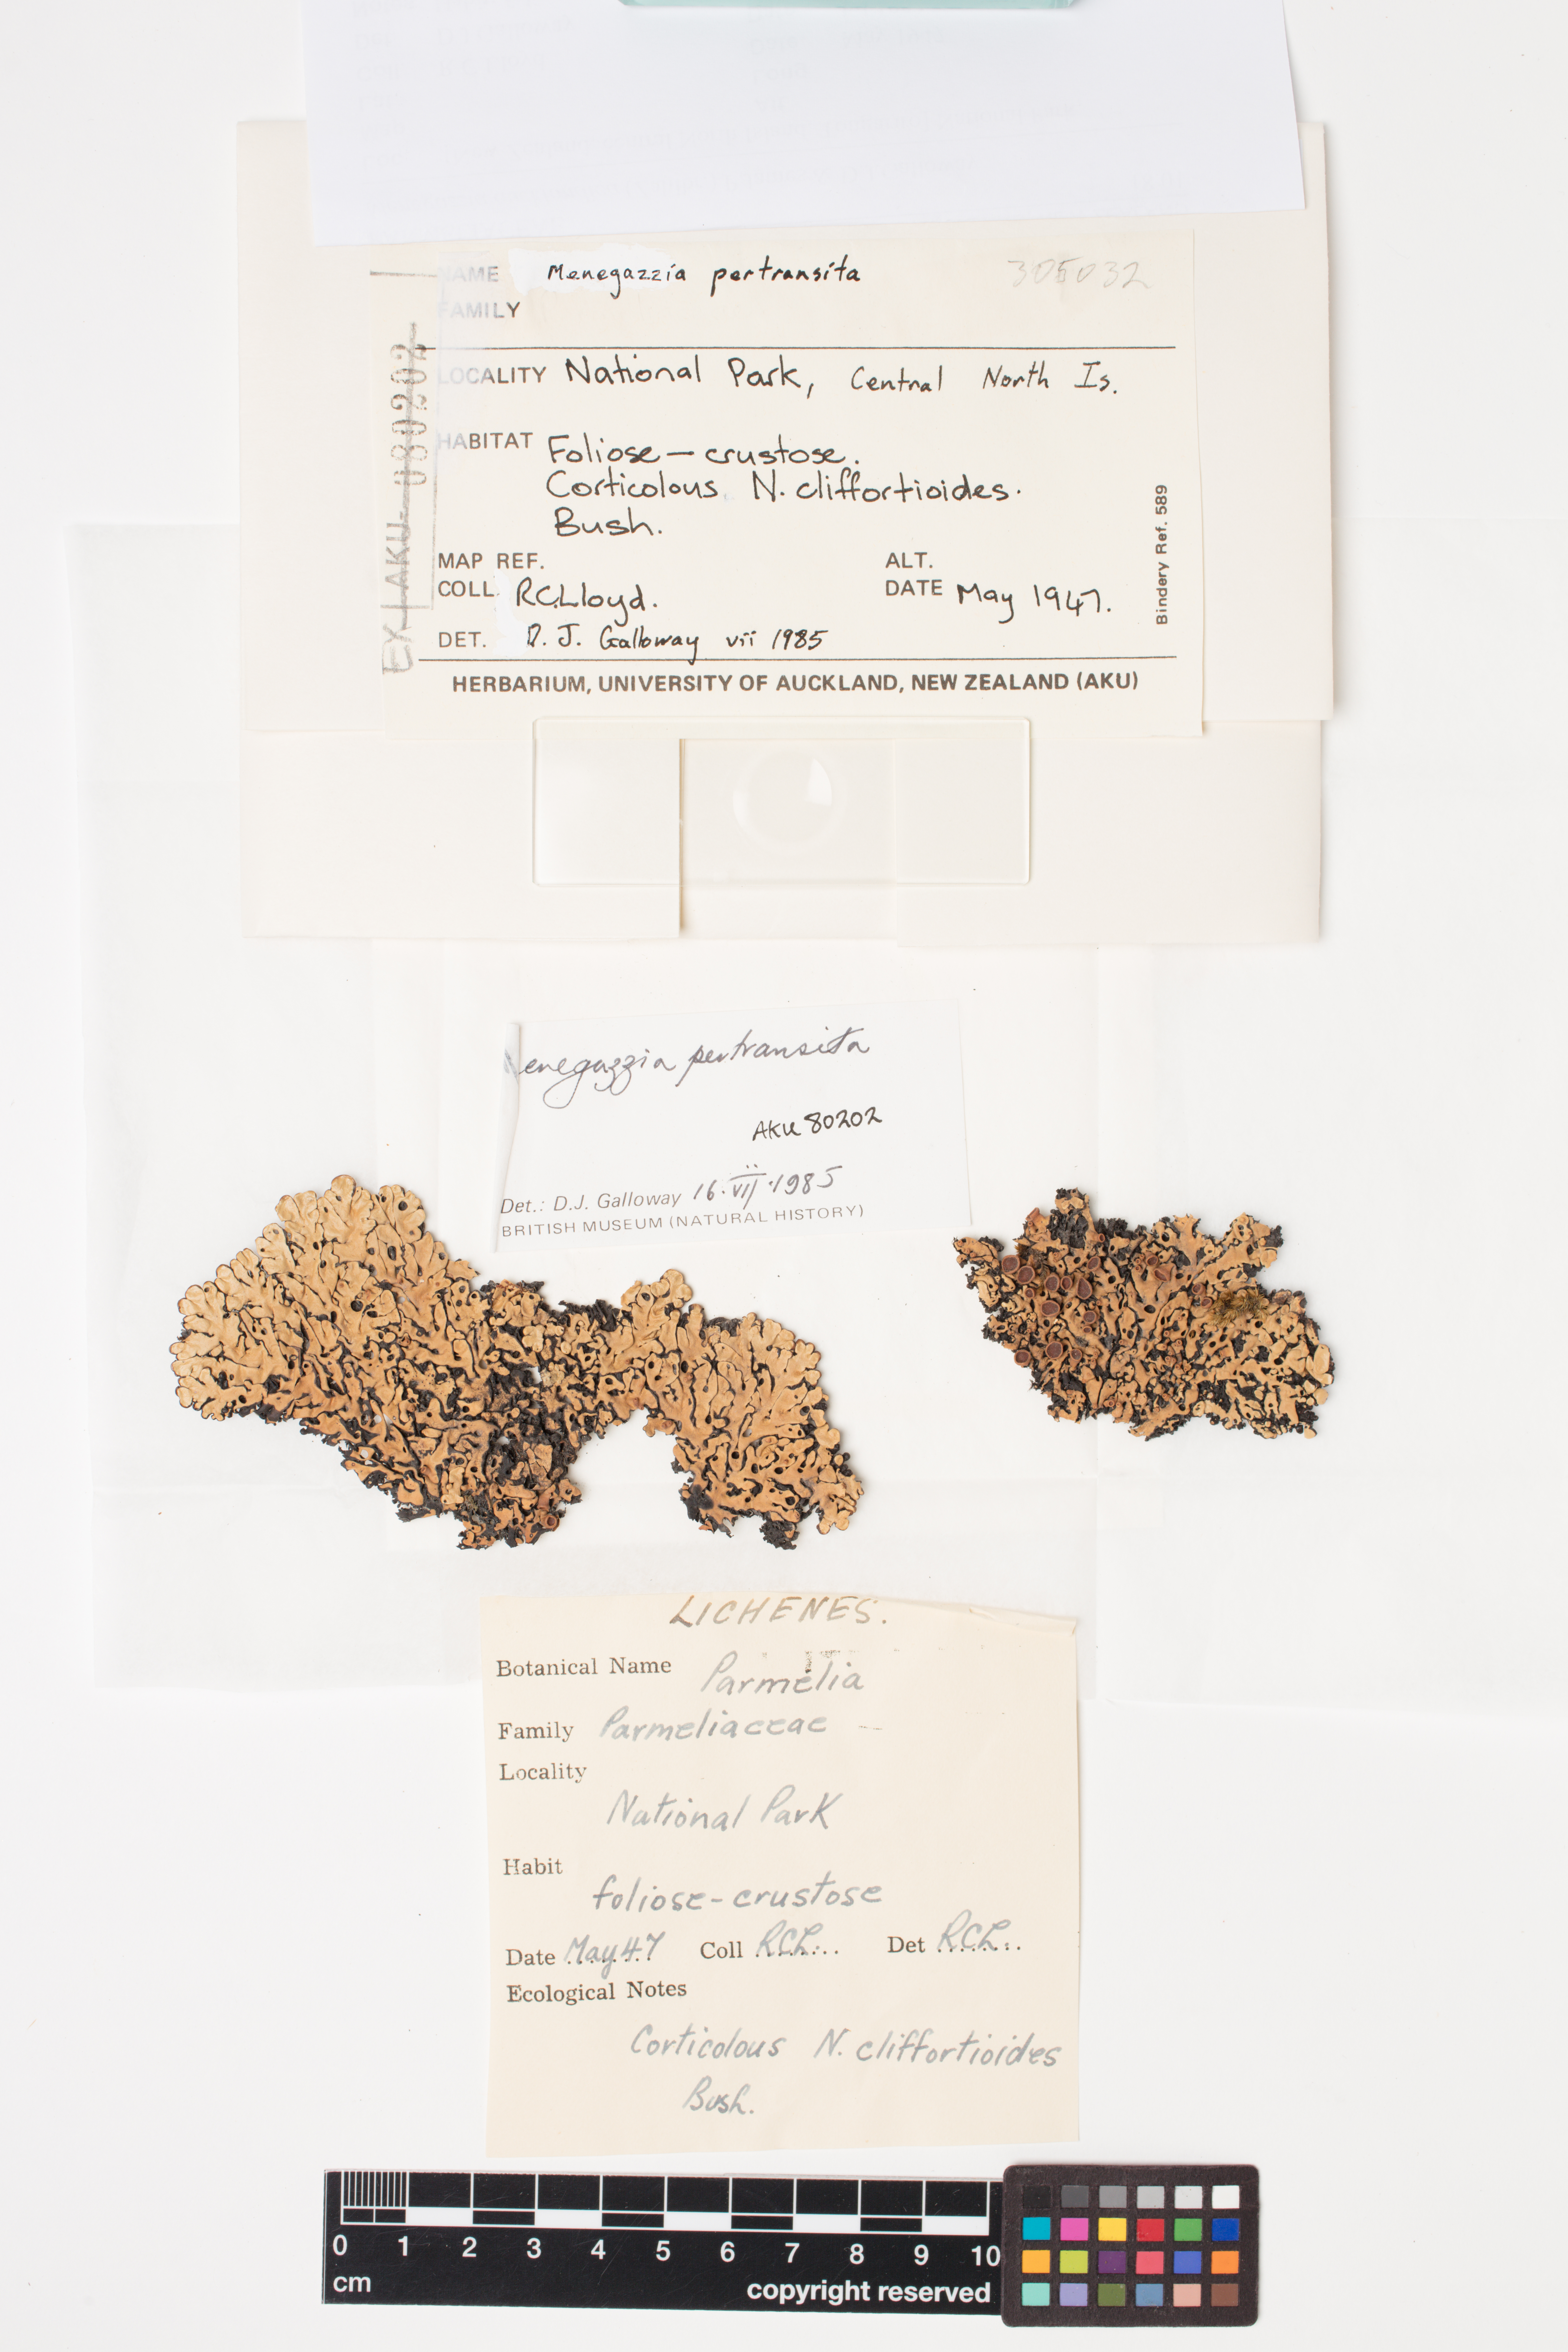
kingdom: Fungi
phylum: Ascomycota
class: Lecanoromycetes
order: Lecanorales
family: Parmeliaceae
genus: Menegazzia
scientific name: Menegazzia aucklandica
